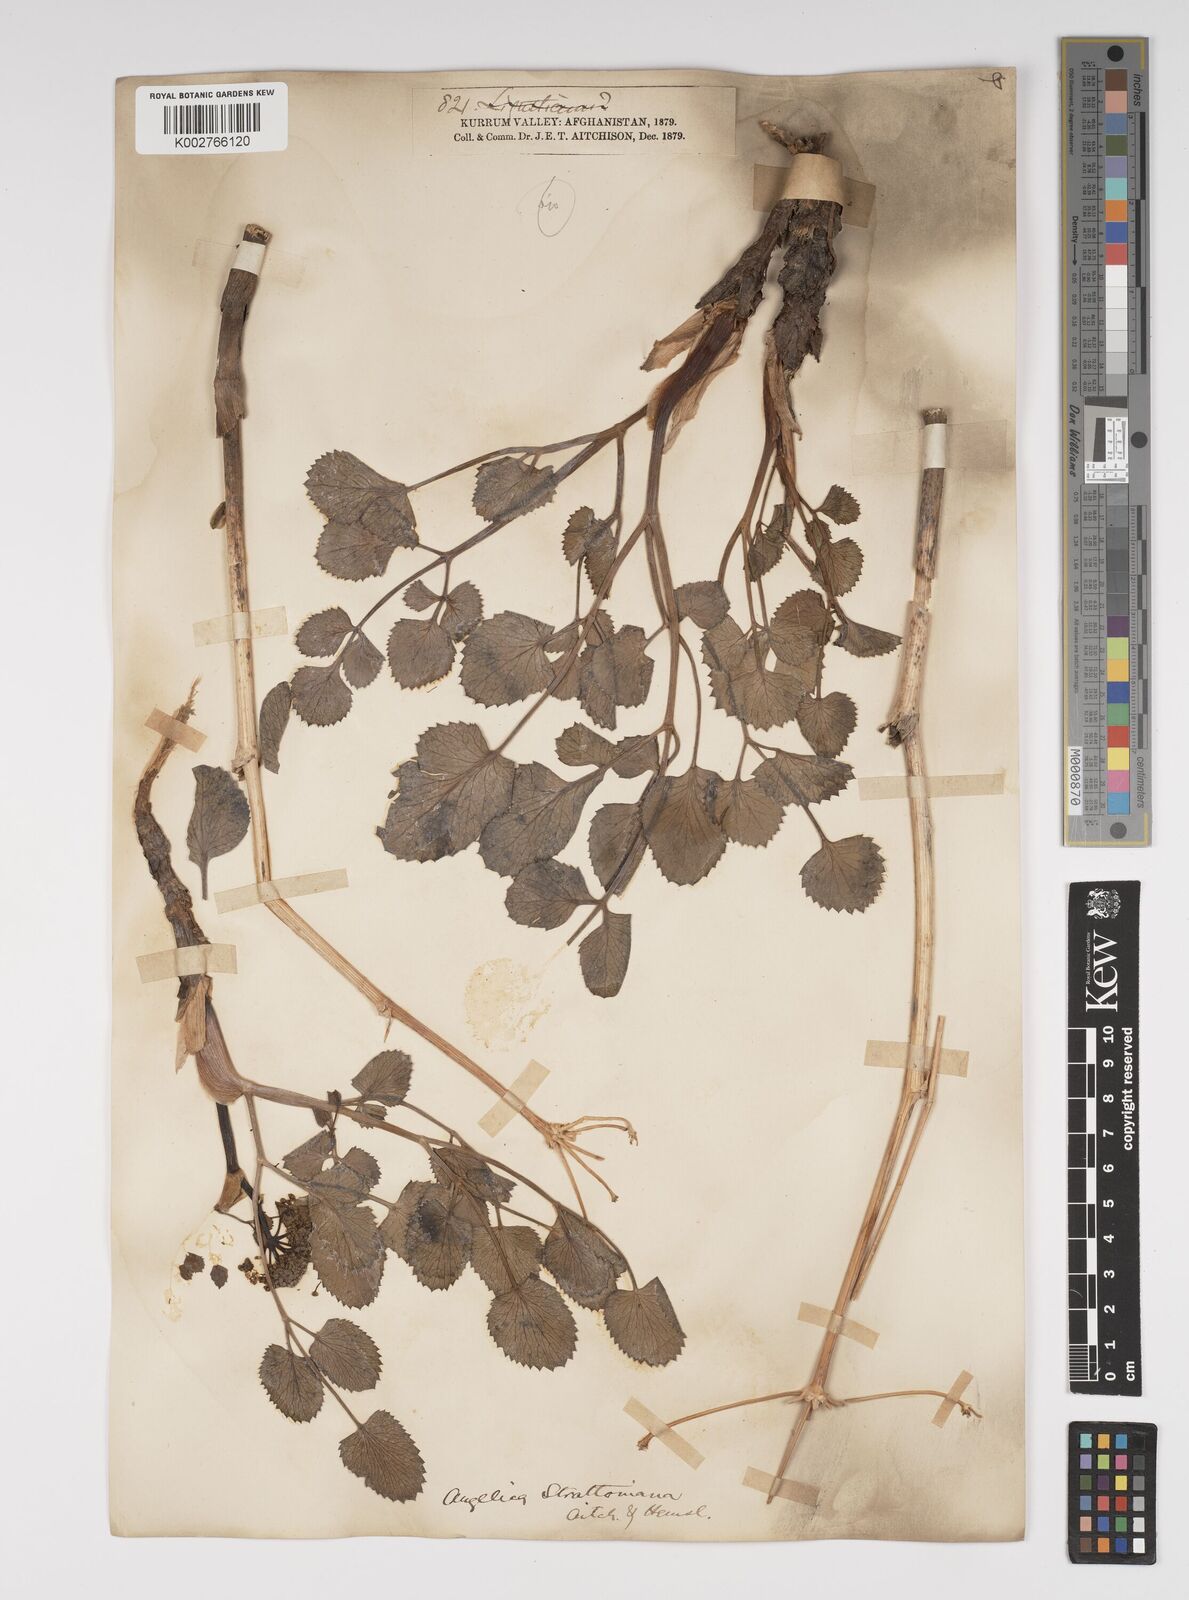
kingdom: Plantae
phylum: Tracheophyta
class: Magnoliopsida
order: Apiales
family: Apiaceae
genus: Angelica
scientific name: Angelica ternata
